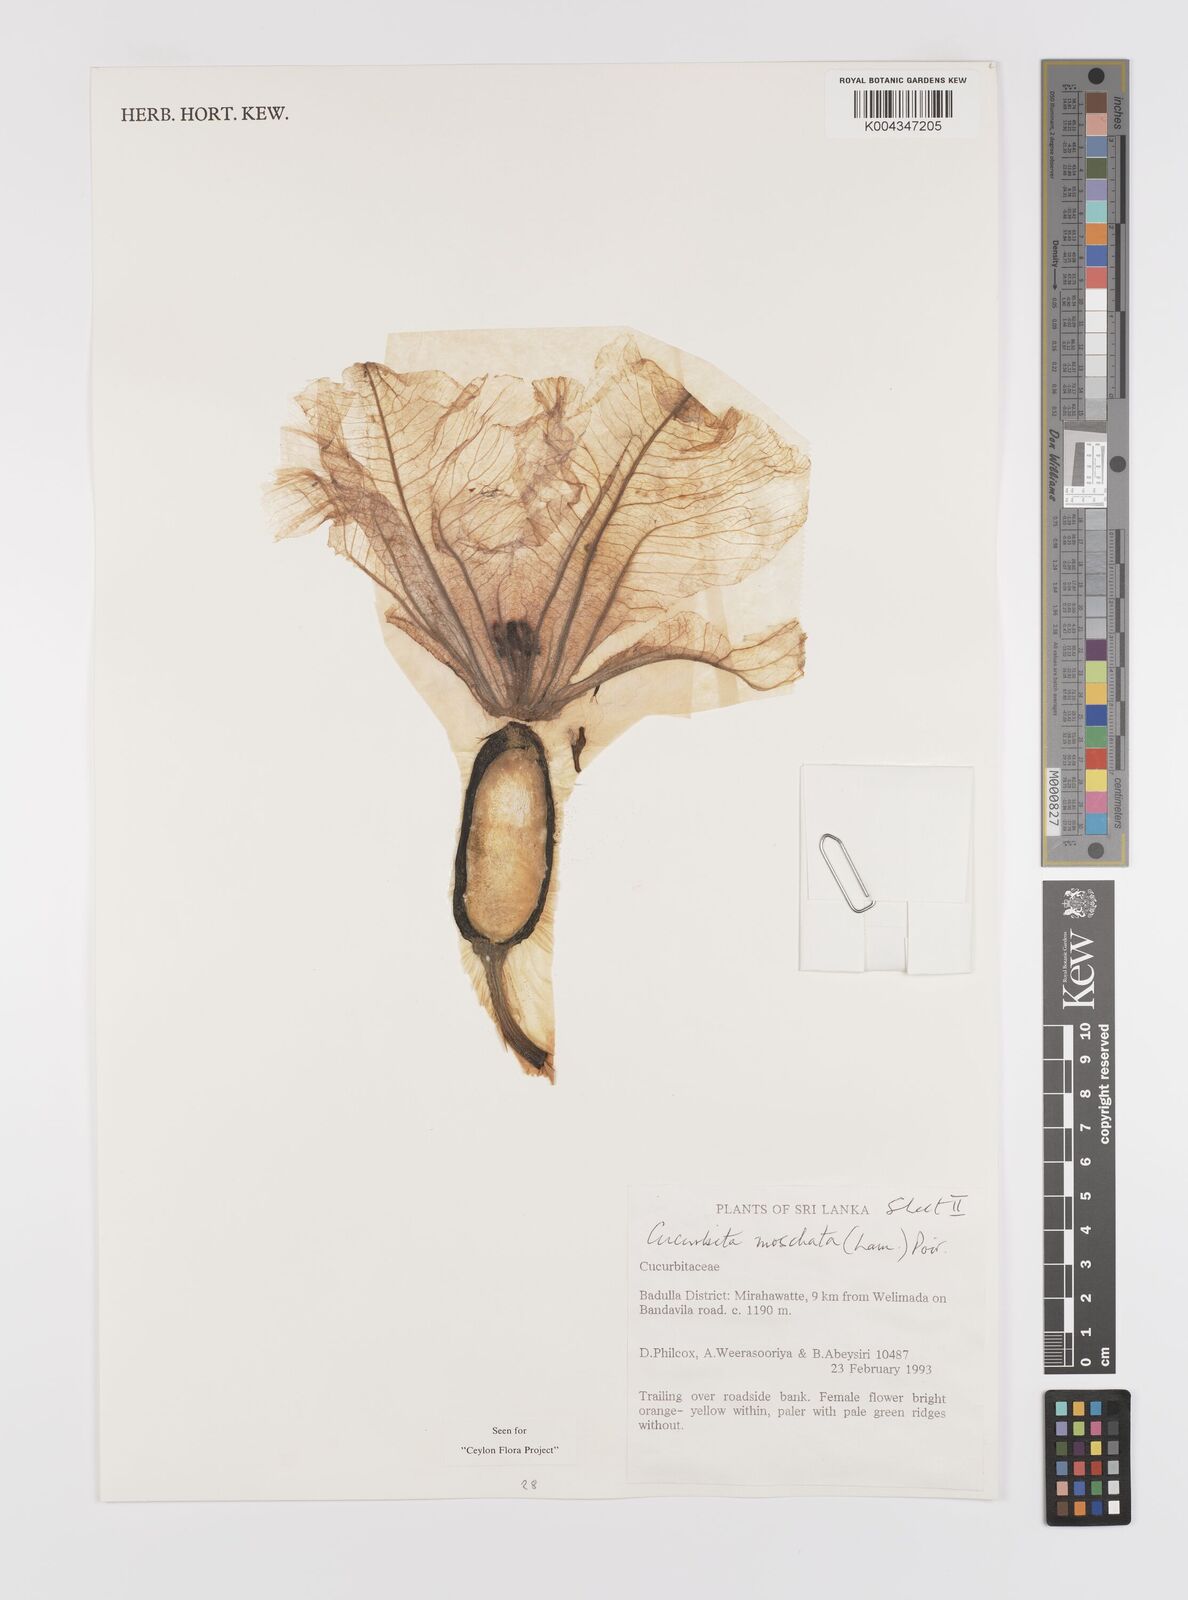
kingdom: Plantae
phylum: Tracheophyta
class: Magnoliopsida
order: Cucurbitales
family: Cucurbitaceae
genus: Cucurbita
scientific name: Cucurbita moschata
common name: Squash / pumpkin
